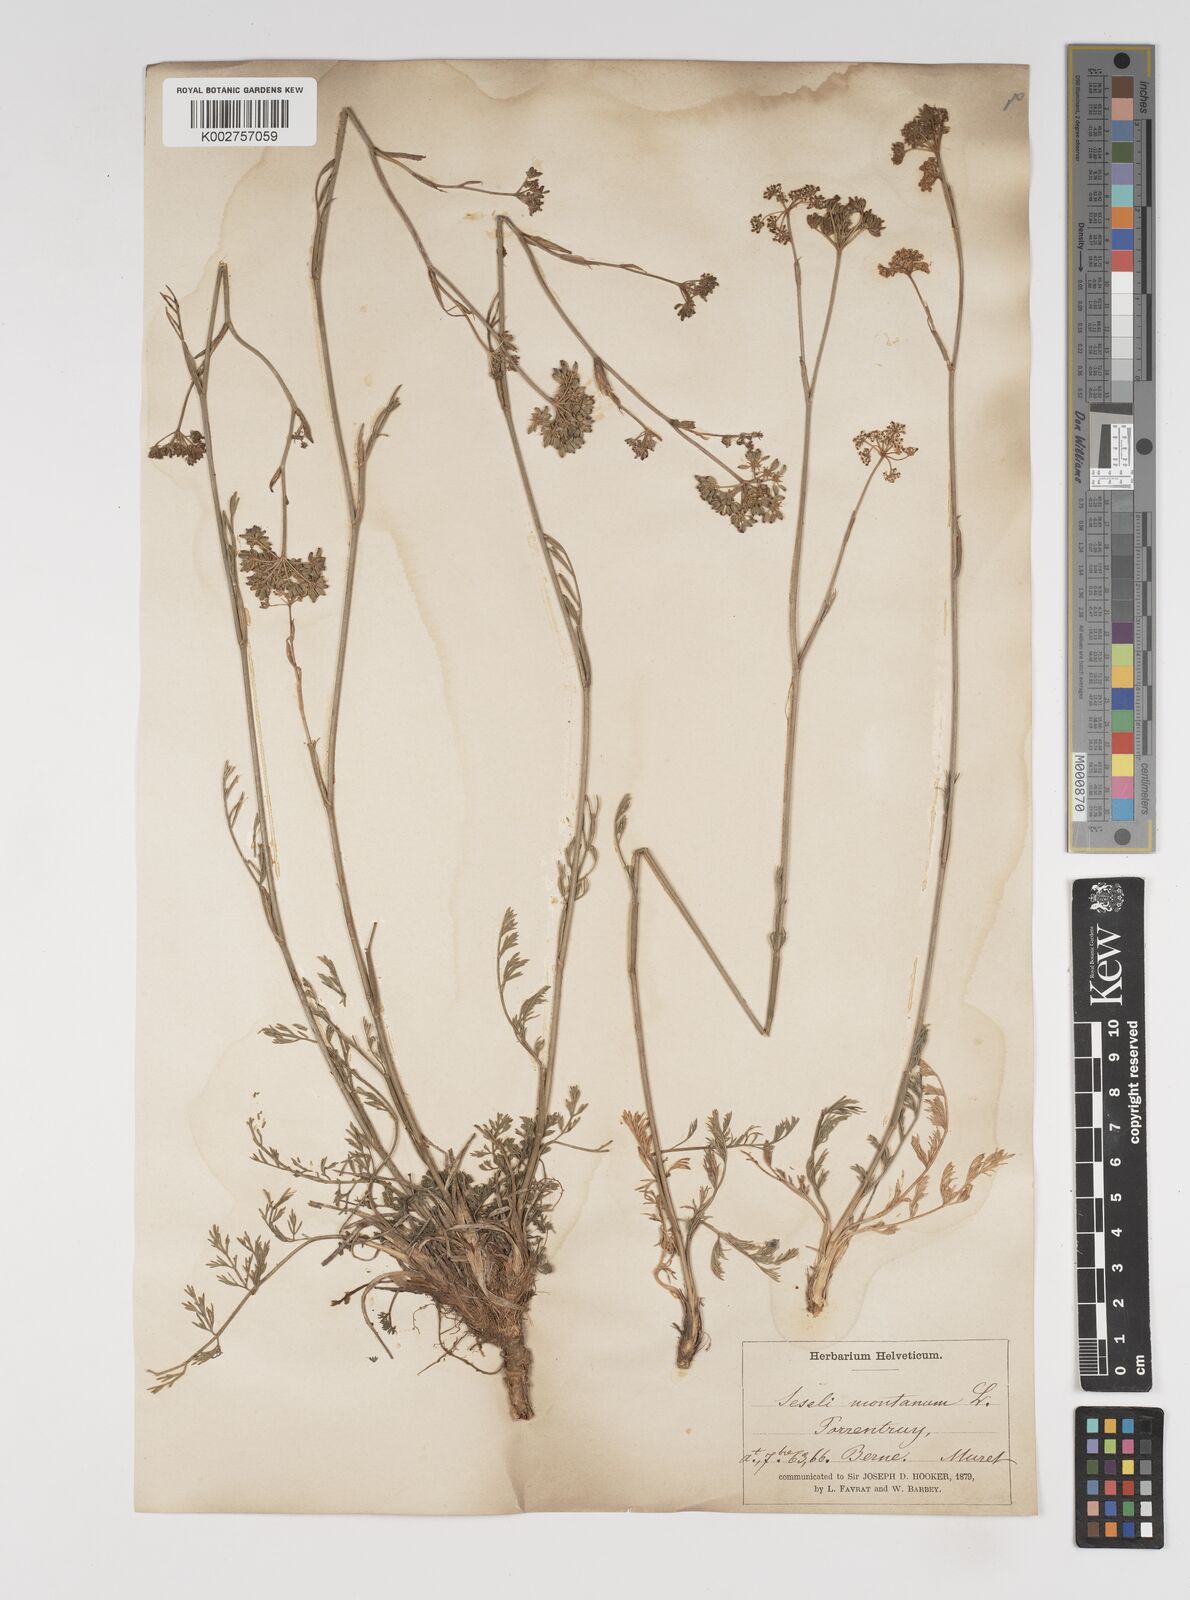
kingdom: Plantae
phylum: Tracheophyta
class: Magnoliopsida
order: Apiales
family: Apiaceae
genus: Seseli
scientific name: Seseli montanum
